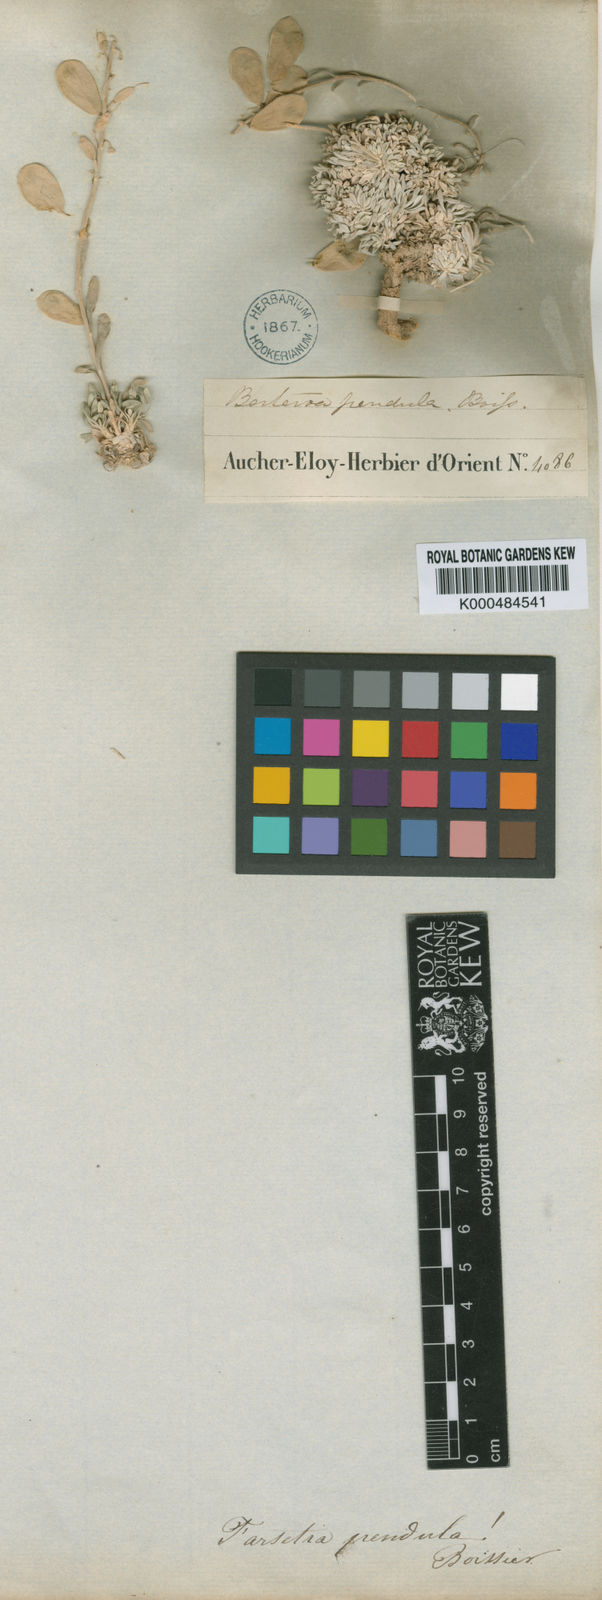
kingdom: Plantae
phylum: Tracheophyta
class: Magnoliopsida
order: Brassicales
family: Brassicaceae
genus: Irania
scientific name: Irania pendula
